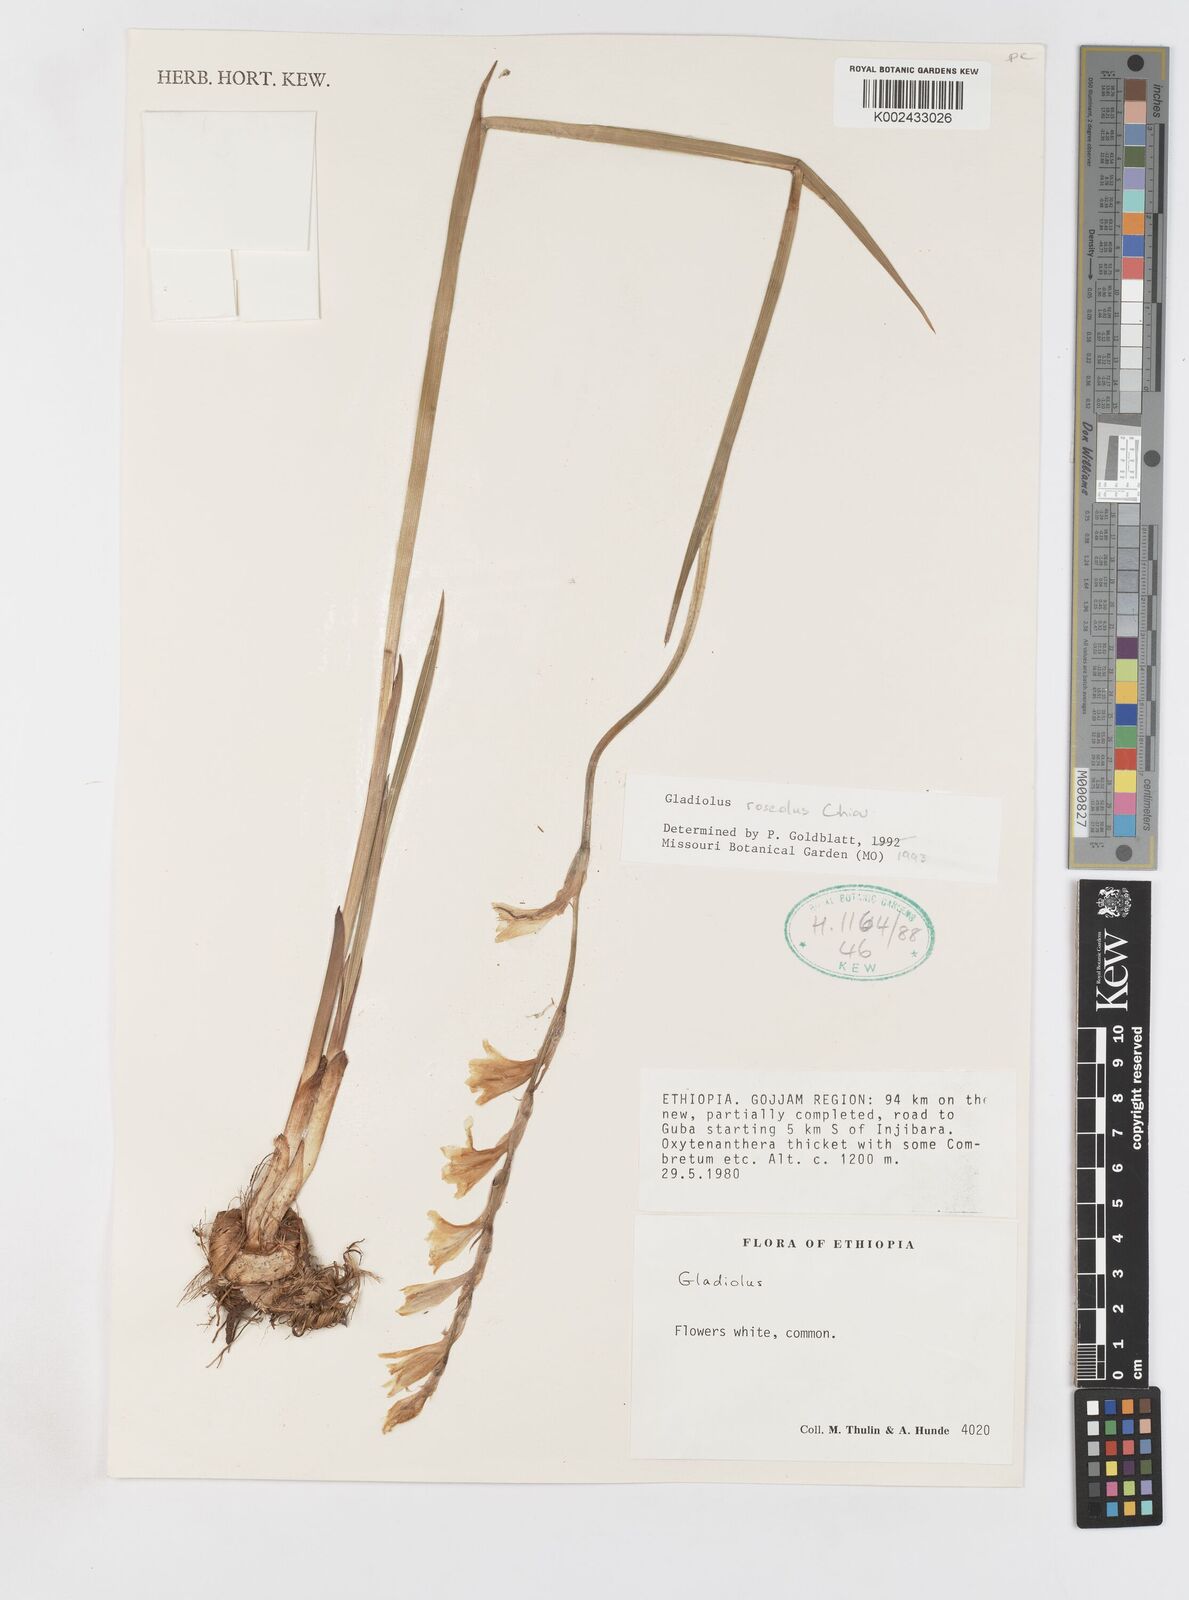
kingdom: Plantae
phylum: Tracheophyta
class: Liliopsida
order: Asparagales
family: Iridaceae
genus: Gladiolus
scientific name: Gladiolus roseolus
